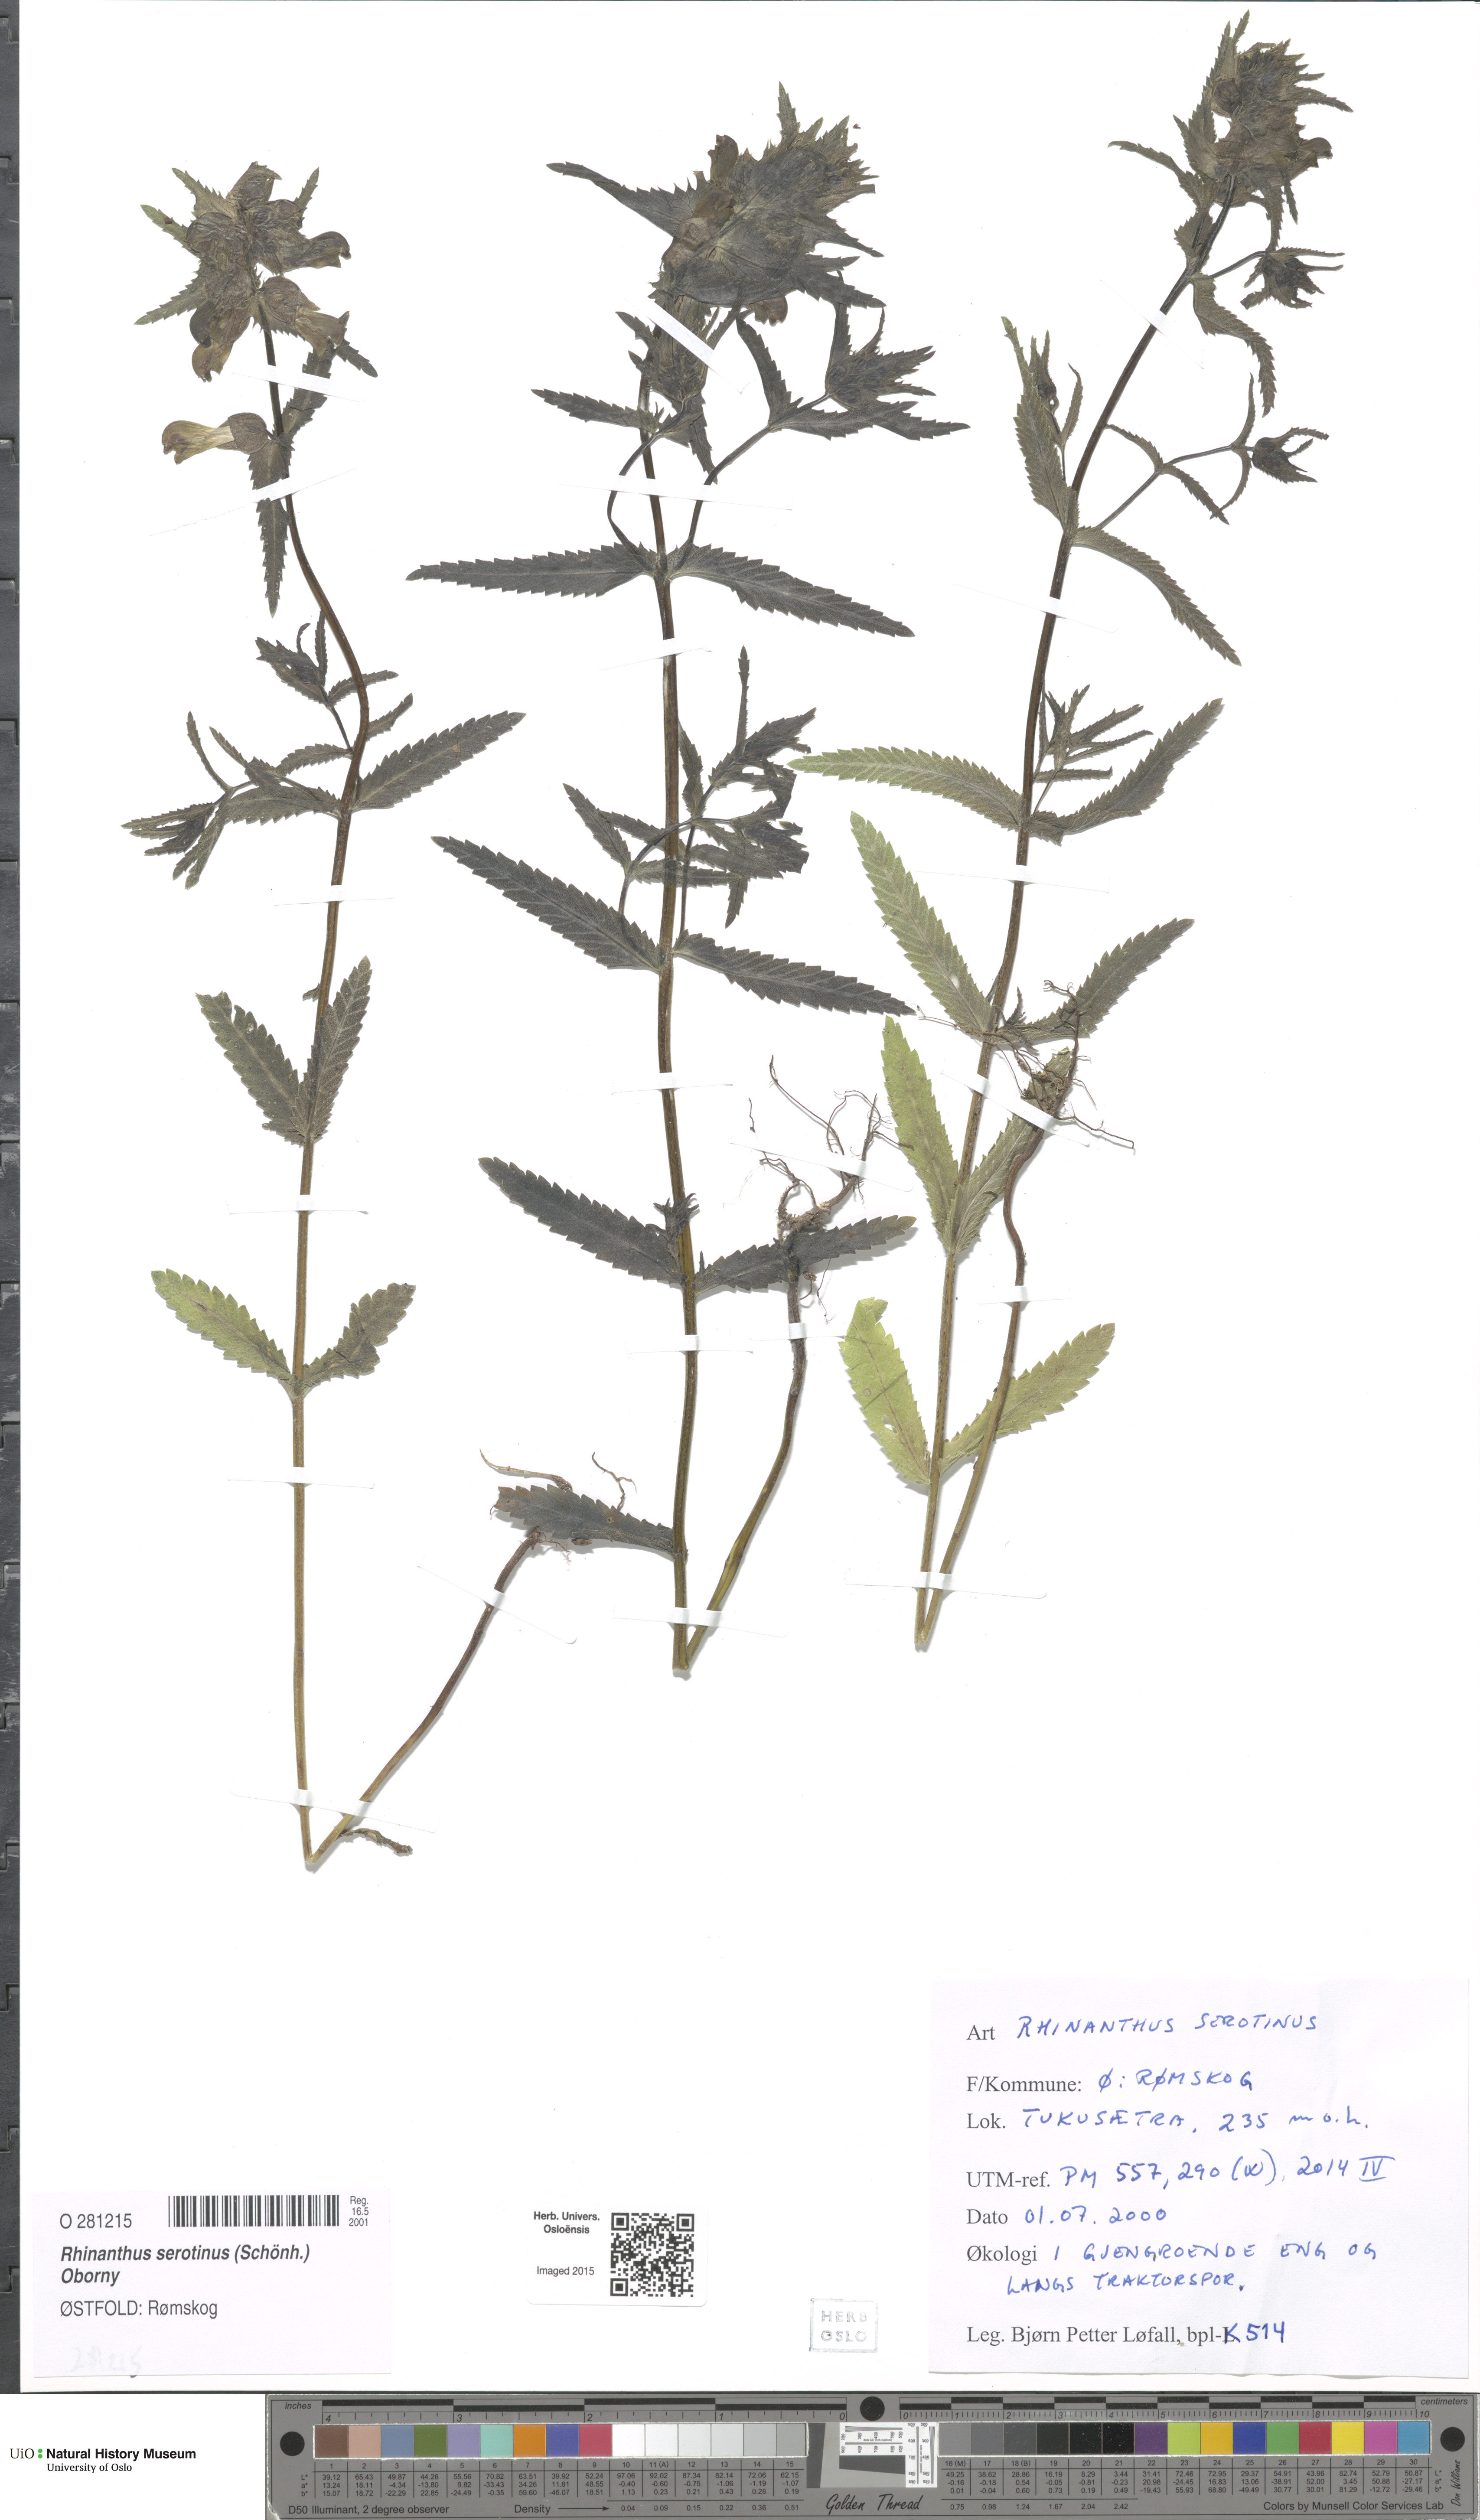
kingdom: Plantae
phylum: Tracheophyta
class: Magnoliopsida
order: Lamiales
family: Orobanchaceae
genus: Rhinanthus
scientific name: Rhinanthus
